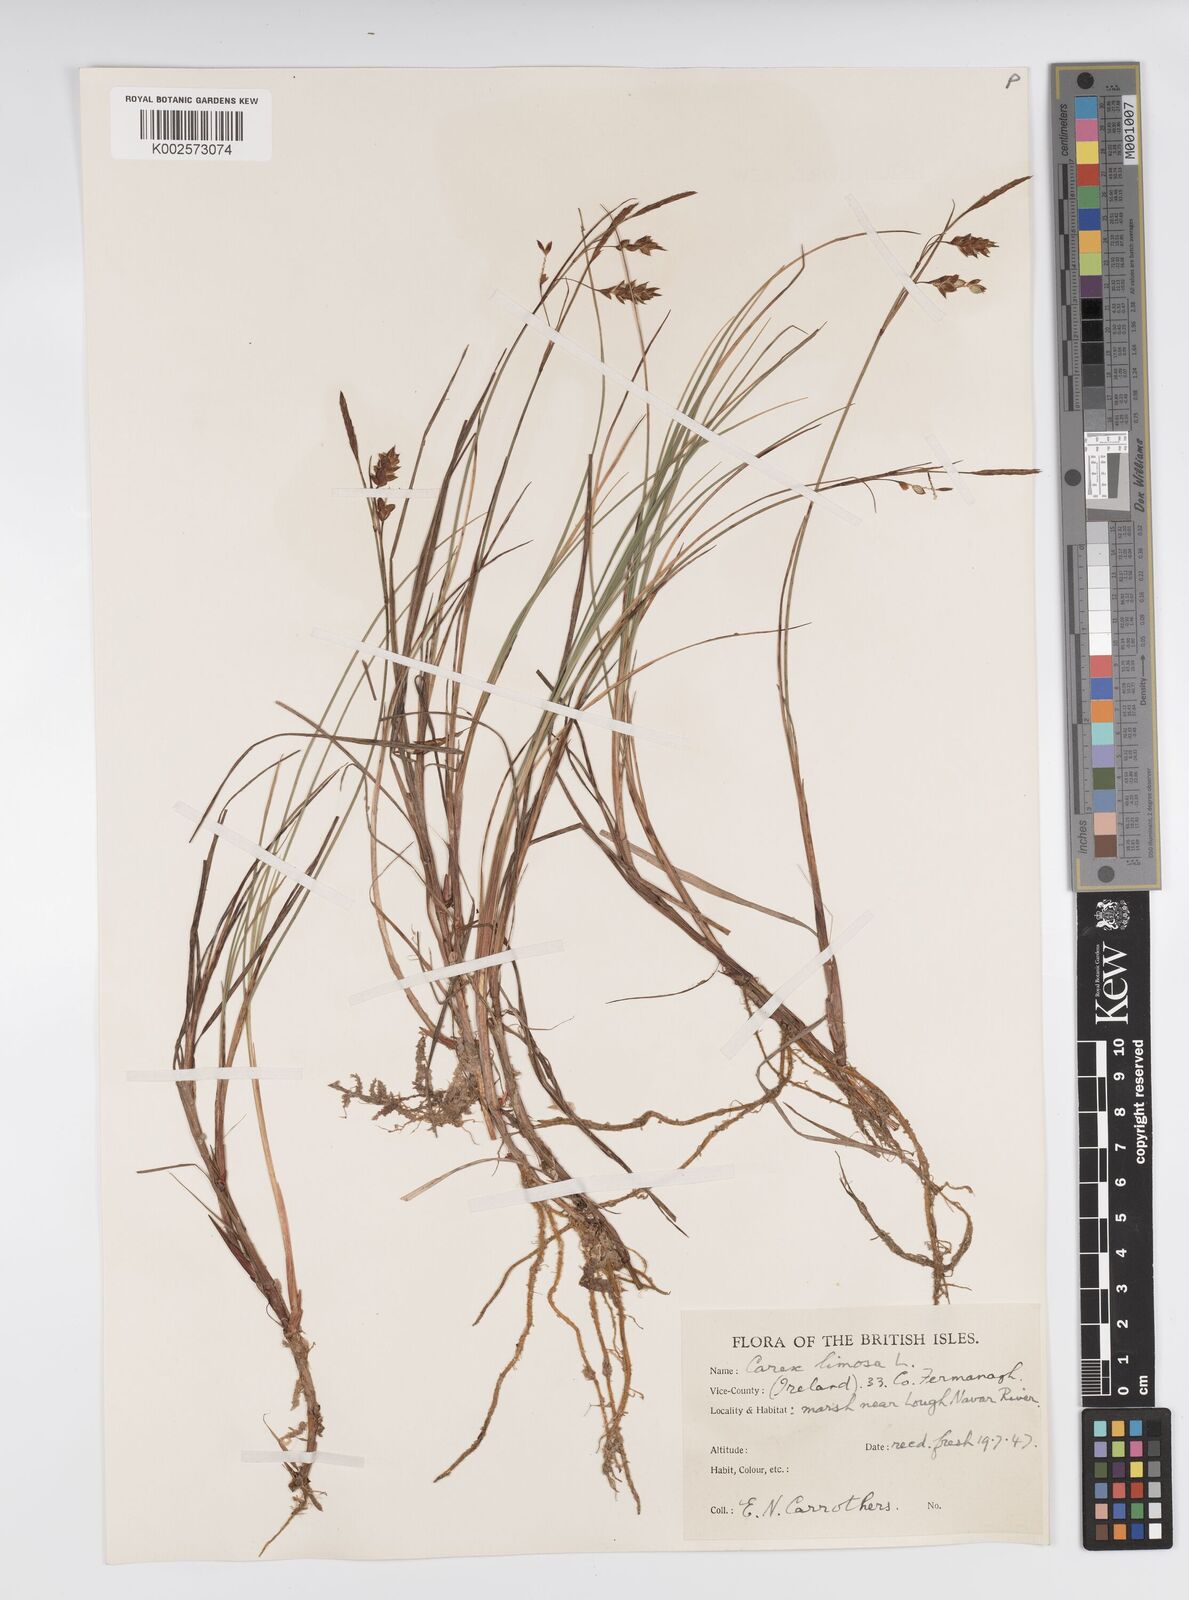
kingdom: Plantae
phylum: Tracheophyta
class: Liliopsida
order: Poales
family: Cyperaceae
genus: Carex
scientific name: Carex limosa
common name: Bog sedge
